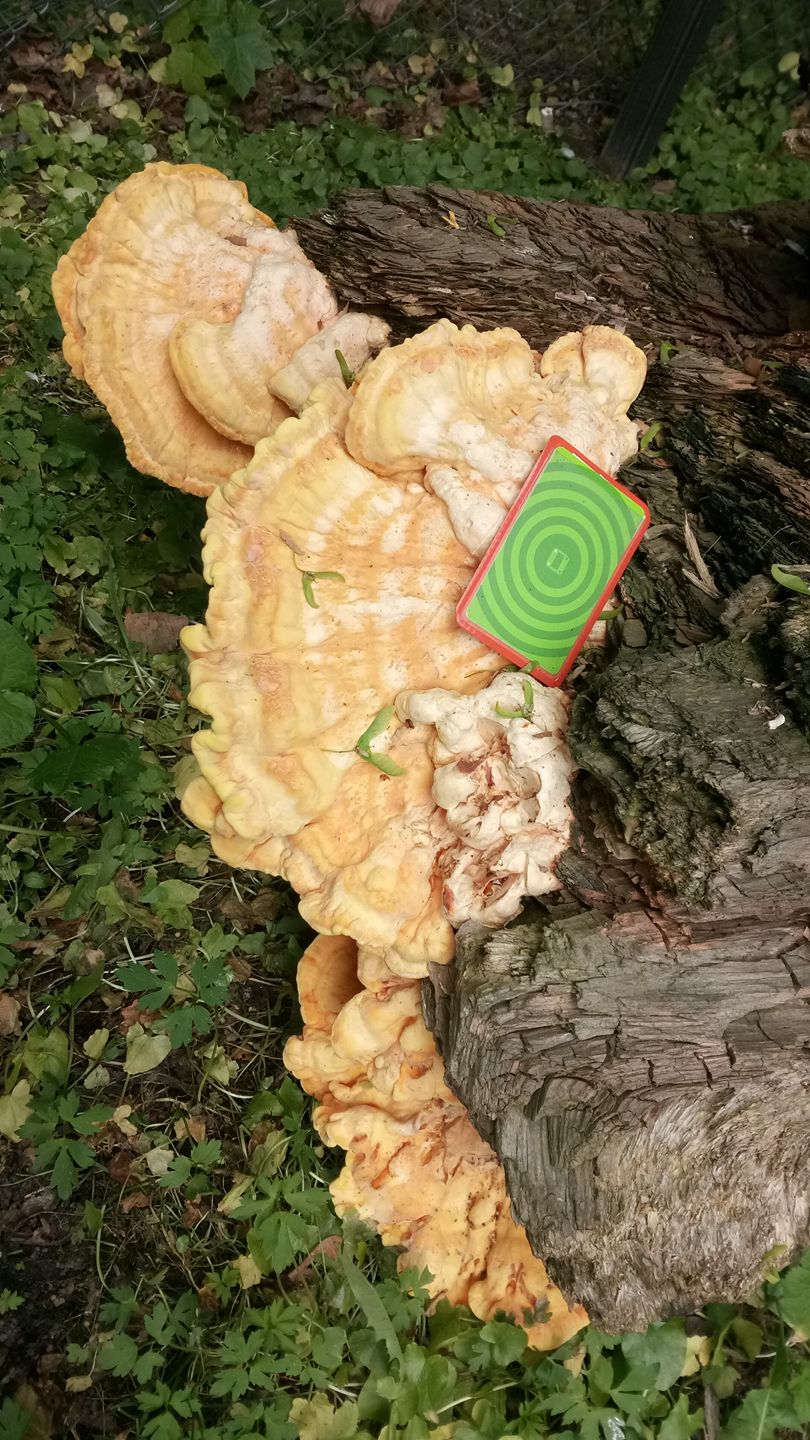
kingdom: Fungi
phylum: Basidiomycota
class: Agaricomycetes
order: Polyporales
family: Laetiporaceae
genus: Laetiporus
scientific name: Laetiporus sulphureus
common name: Chicken of the woods
